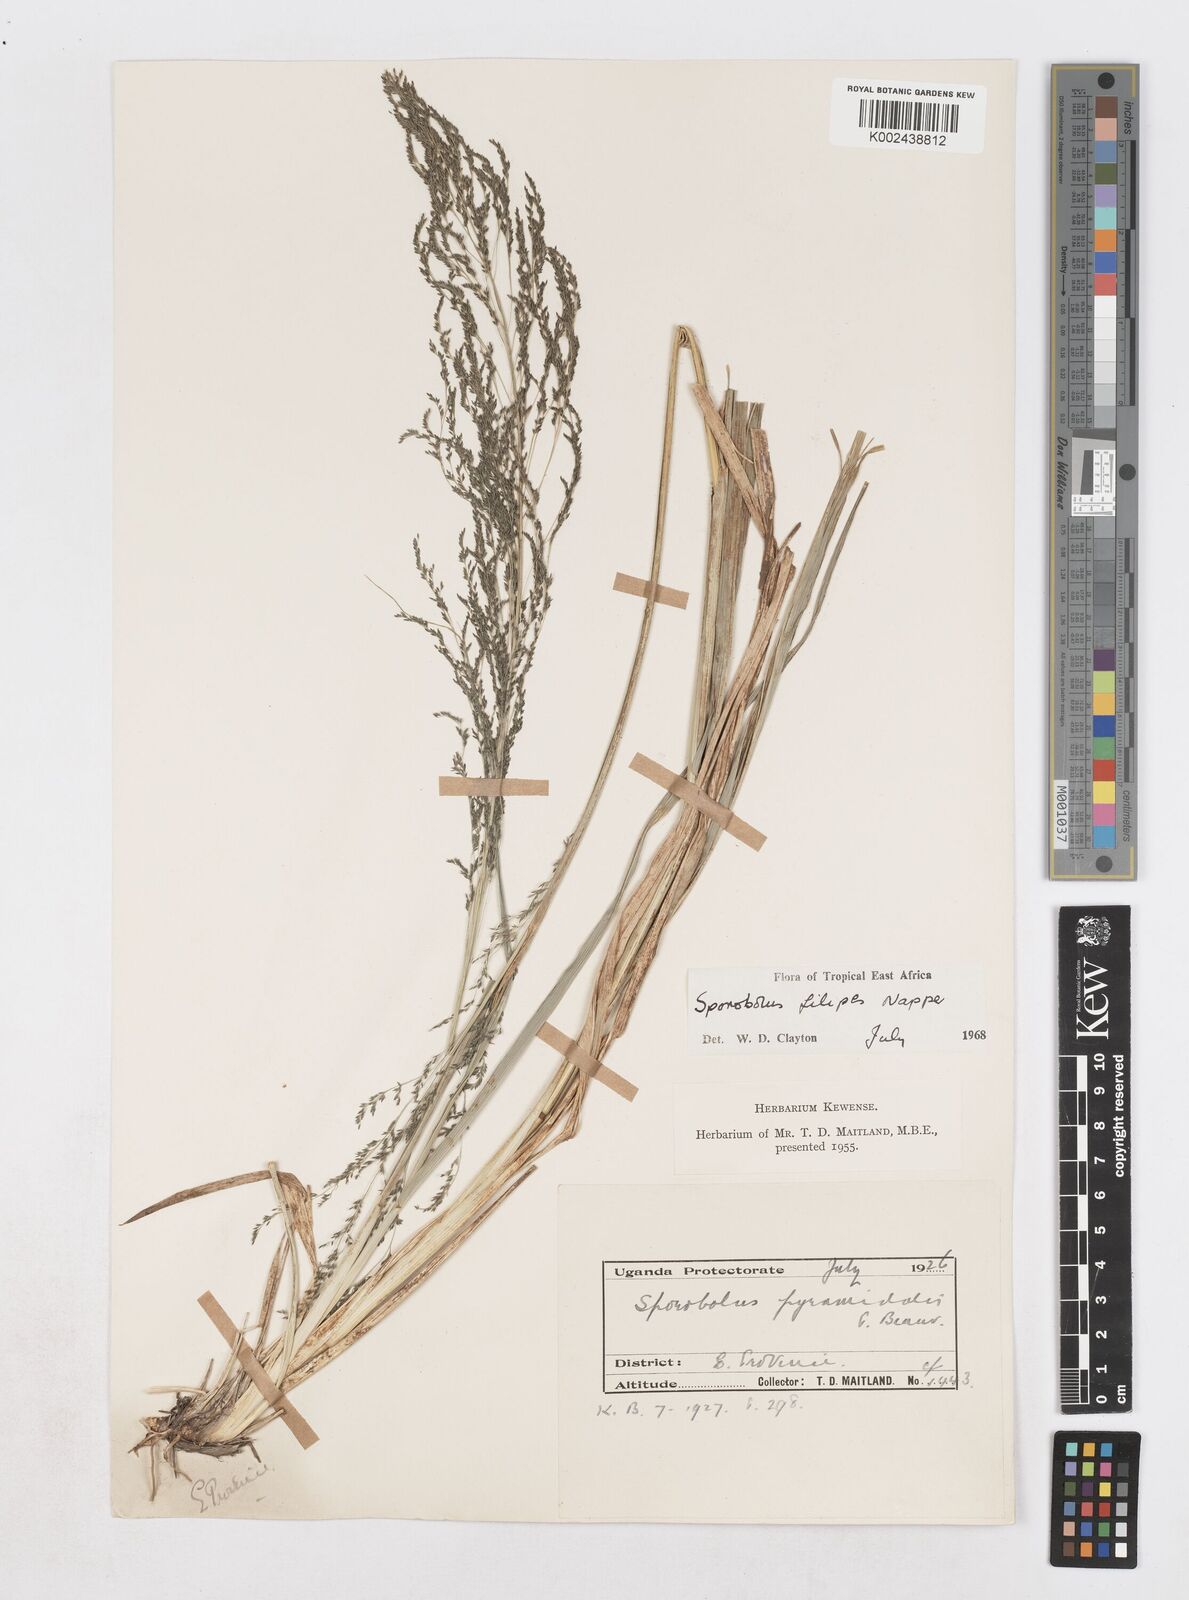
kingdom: Plantae
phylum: Tracheophyta
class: Liliopsida
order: Poales
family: Poaceae
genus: Sporobolus
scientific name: Sporobolus agrostoides
